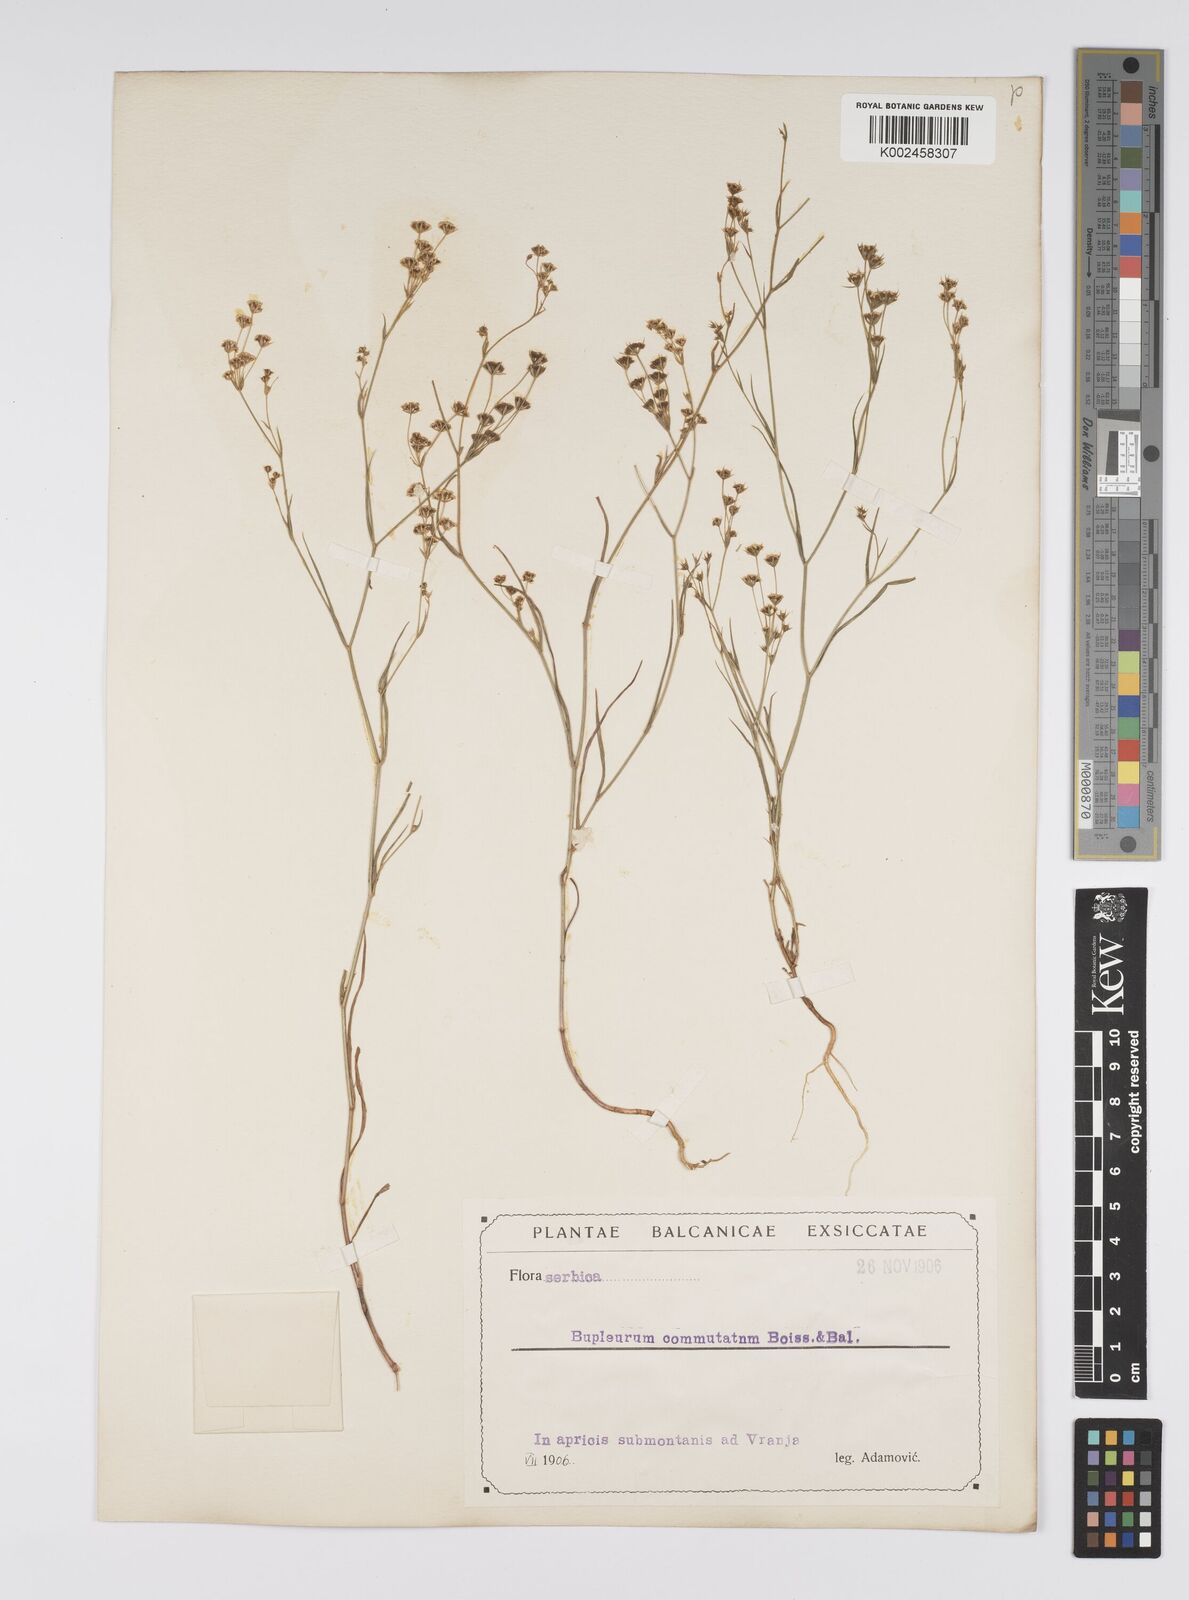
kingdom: Plantae
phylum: Tracheophyta
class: Magnoliopsida
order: Apiales
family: Apiaceae
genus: Bupleurum
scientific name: Bupleurum commutatum
